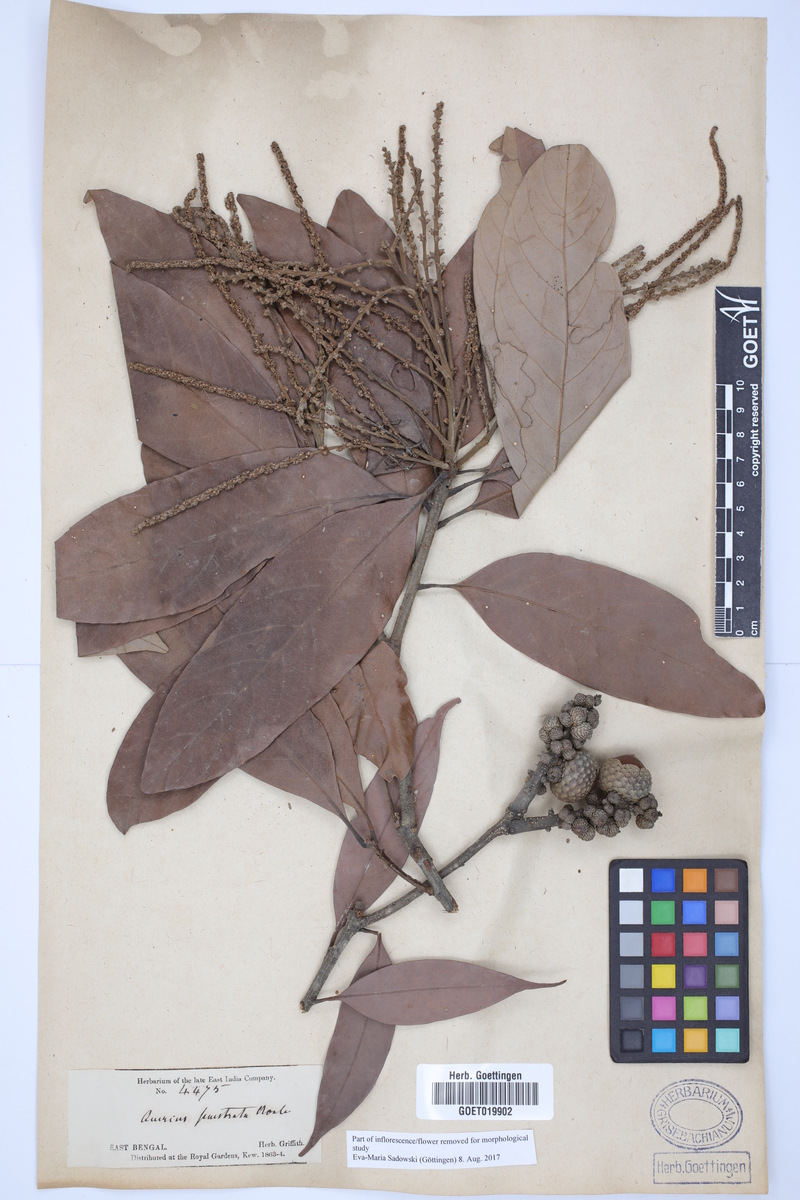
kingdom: Plantae
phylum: Tracheophyta
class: Magnoliopsida
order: Fagales
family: Fagaceae
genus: Lithocarpus
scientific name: Lithocarpus fenestratus
